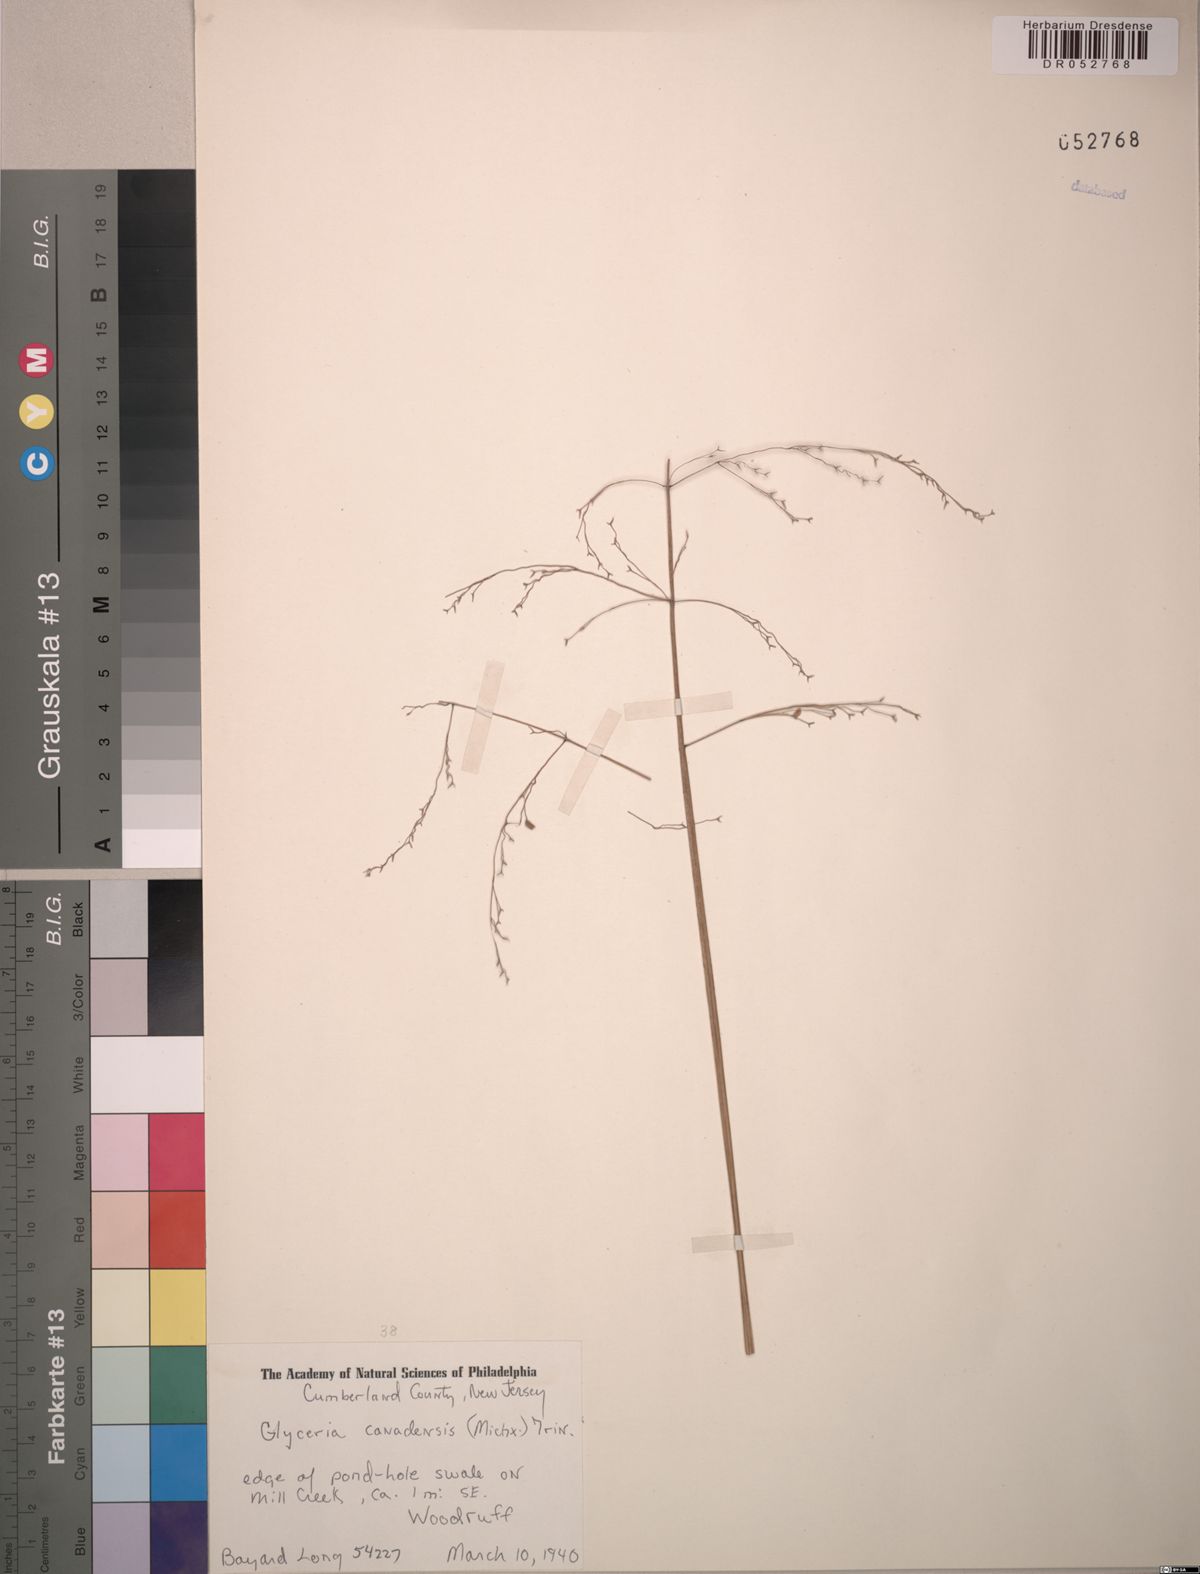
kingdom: Plantae
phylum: Tracheophyta
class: Liliopsida
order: Poales
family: Poaceae
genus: Glyceria
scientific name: Glyceria canadensis
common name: Canada mannagrass
